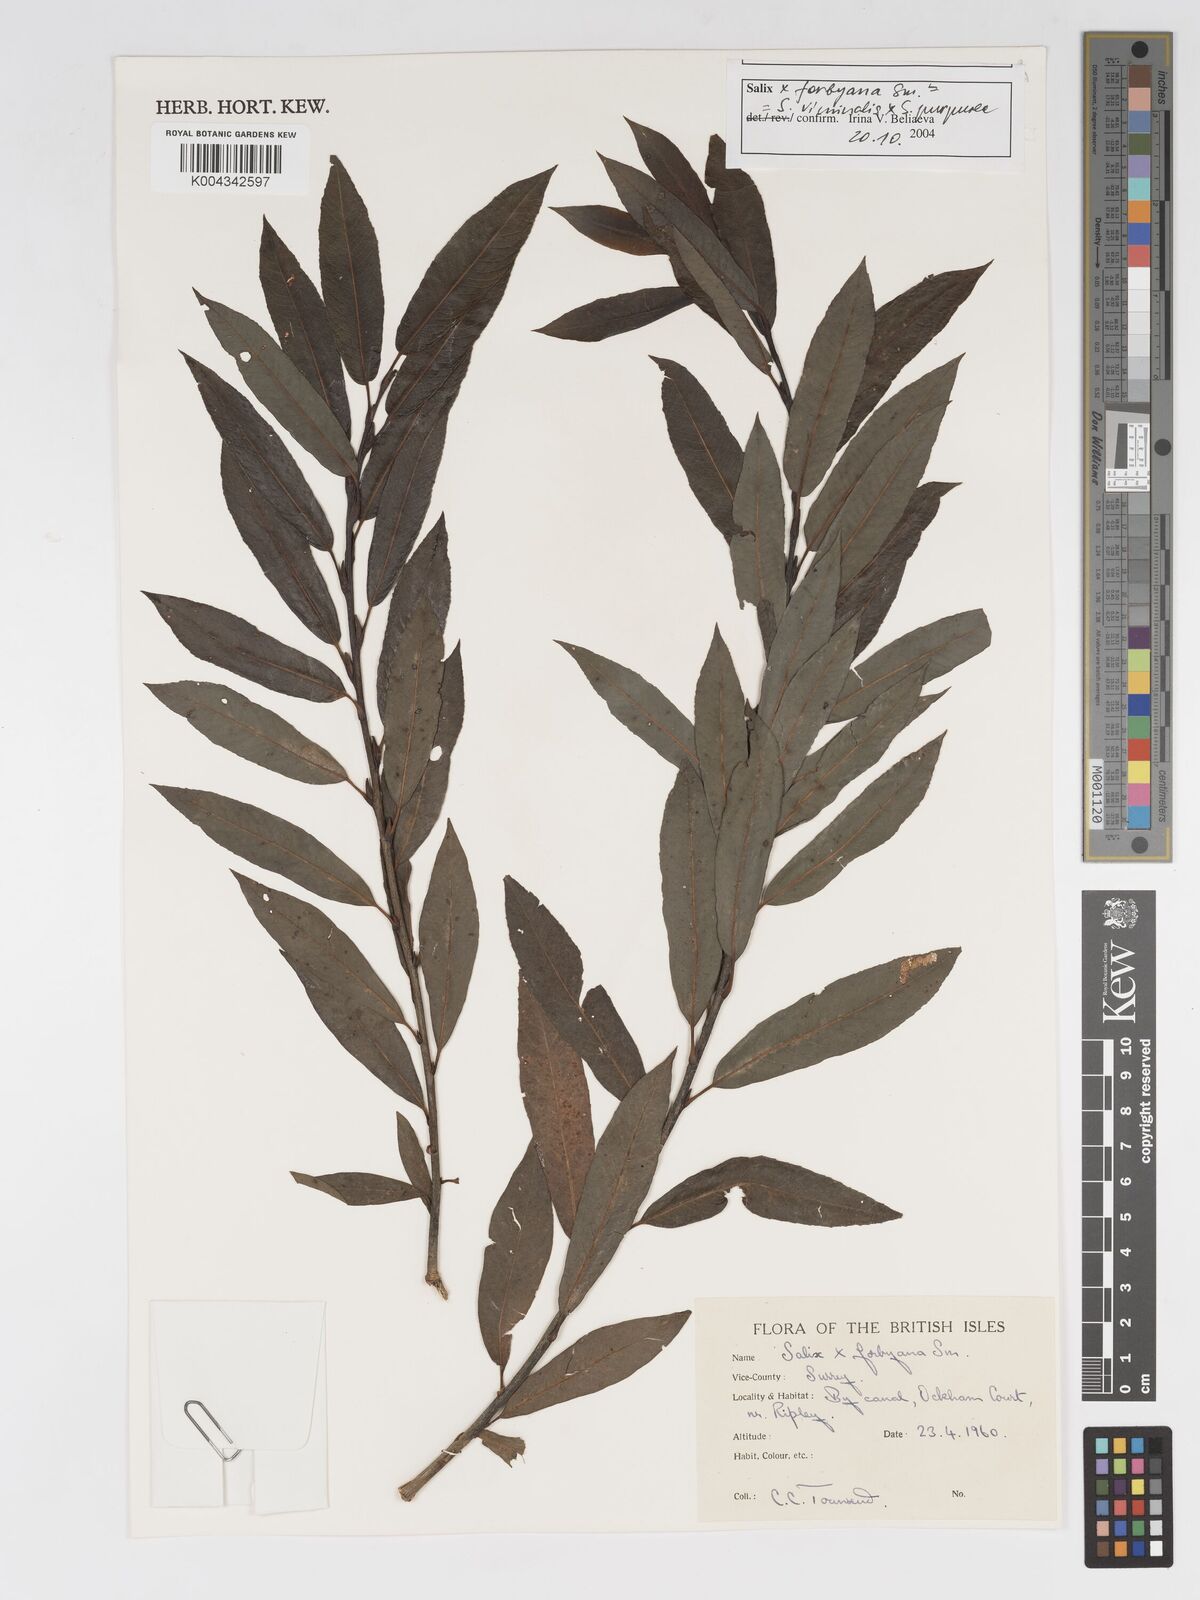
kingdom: Plantae
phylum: Tracheophyta
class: Magnoliopsida
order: Malpighiales
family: Salicaceae
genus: Salix
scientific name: Salix cinerea
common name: Common sallow
